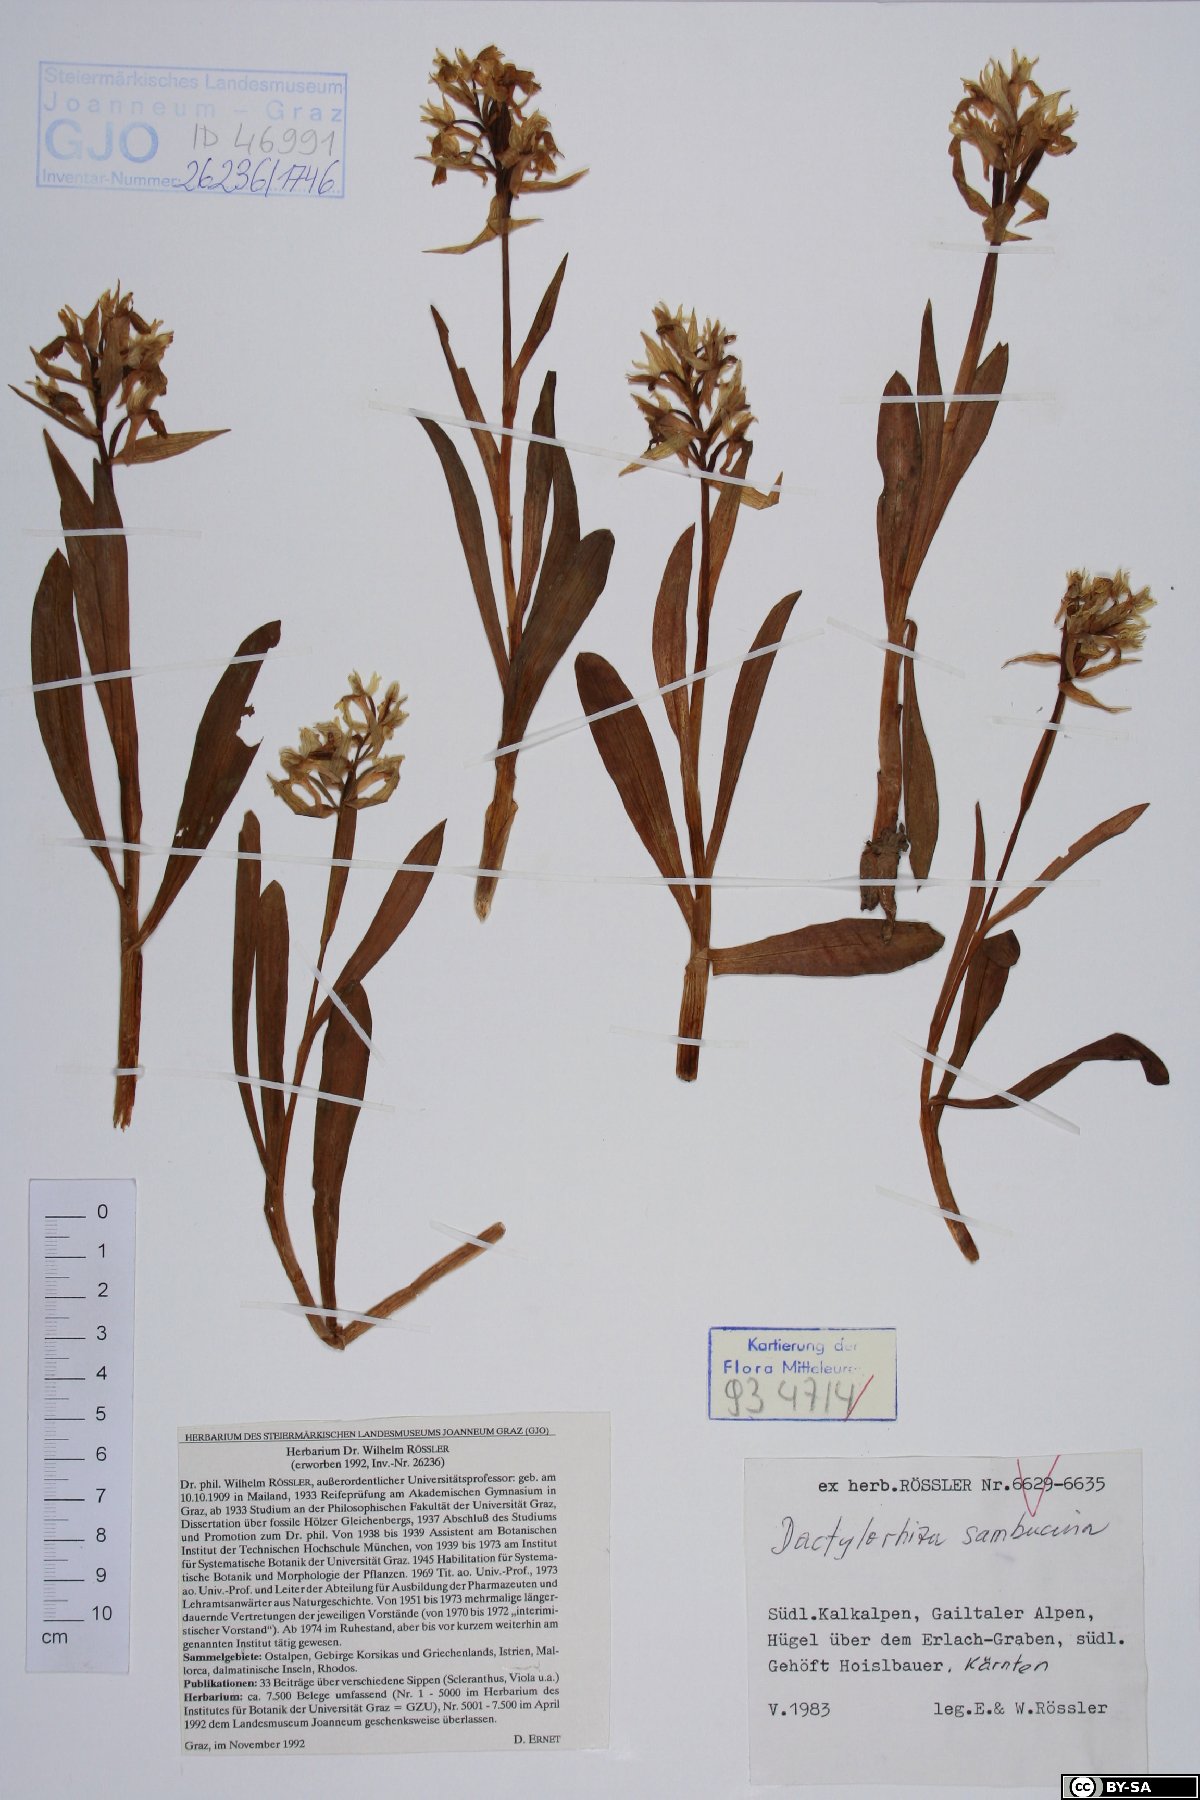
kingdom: Plantae
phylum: Tracheophyta
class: Liliopsida
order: Asparagales
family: Orchidaceae
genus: Dactylorhiza
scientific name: Dactylorhiza sambucina
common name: Elder-flowered orchid
